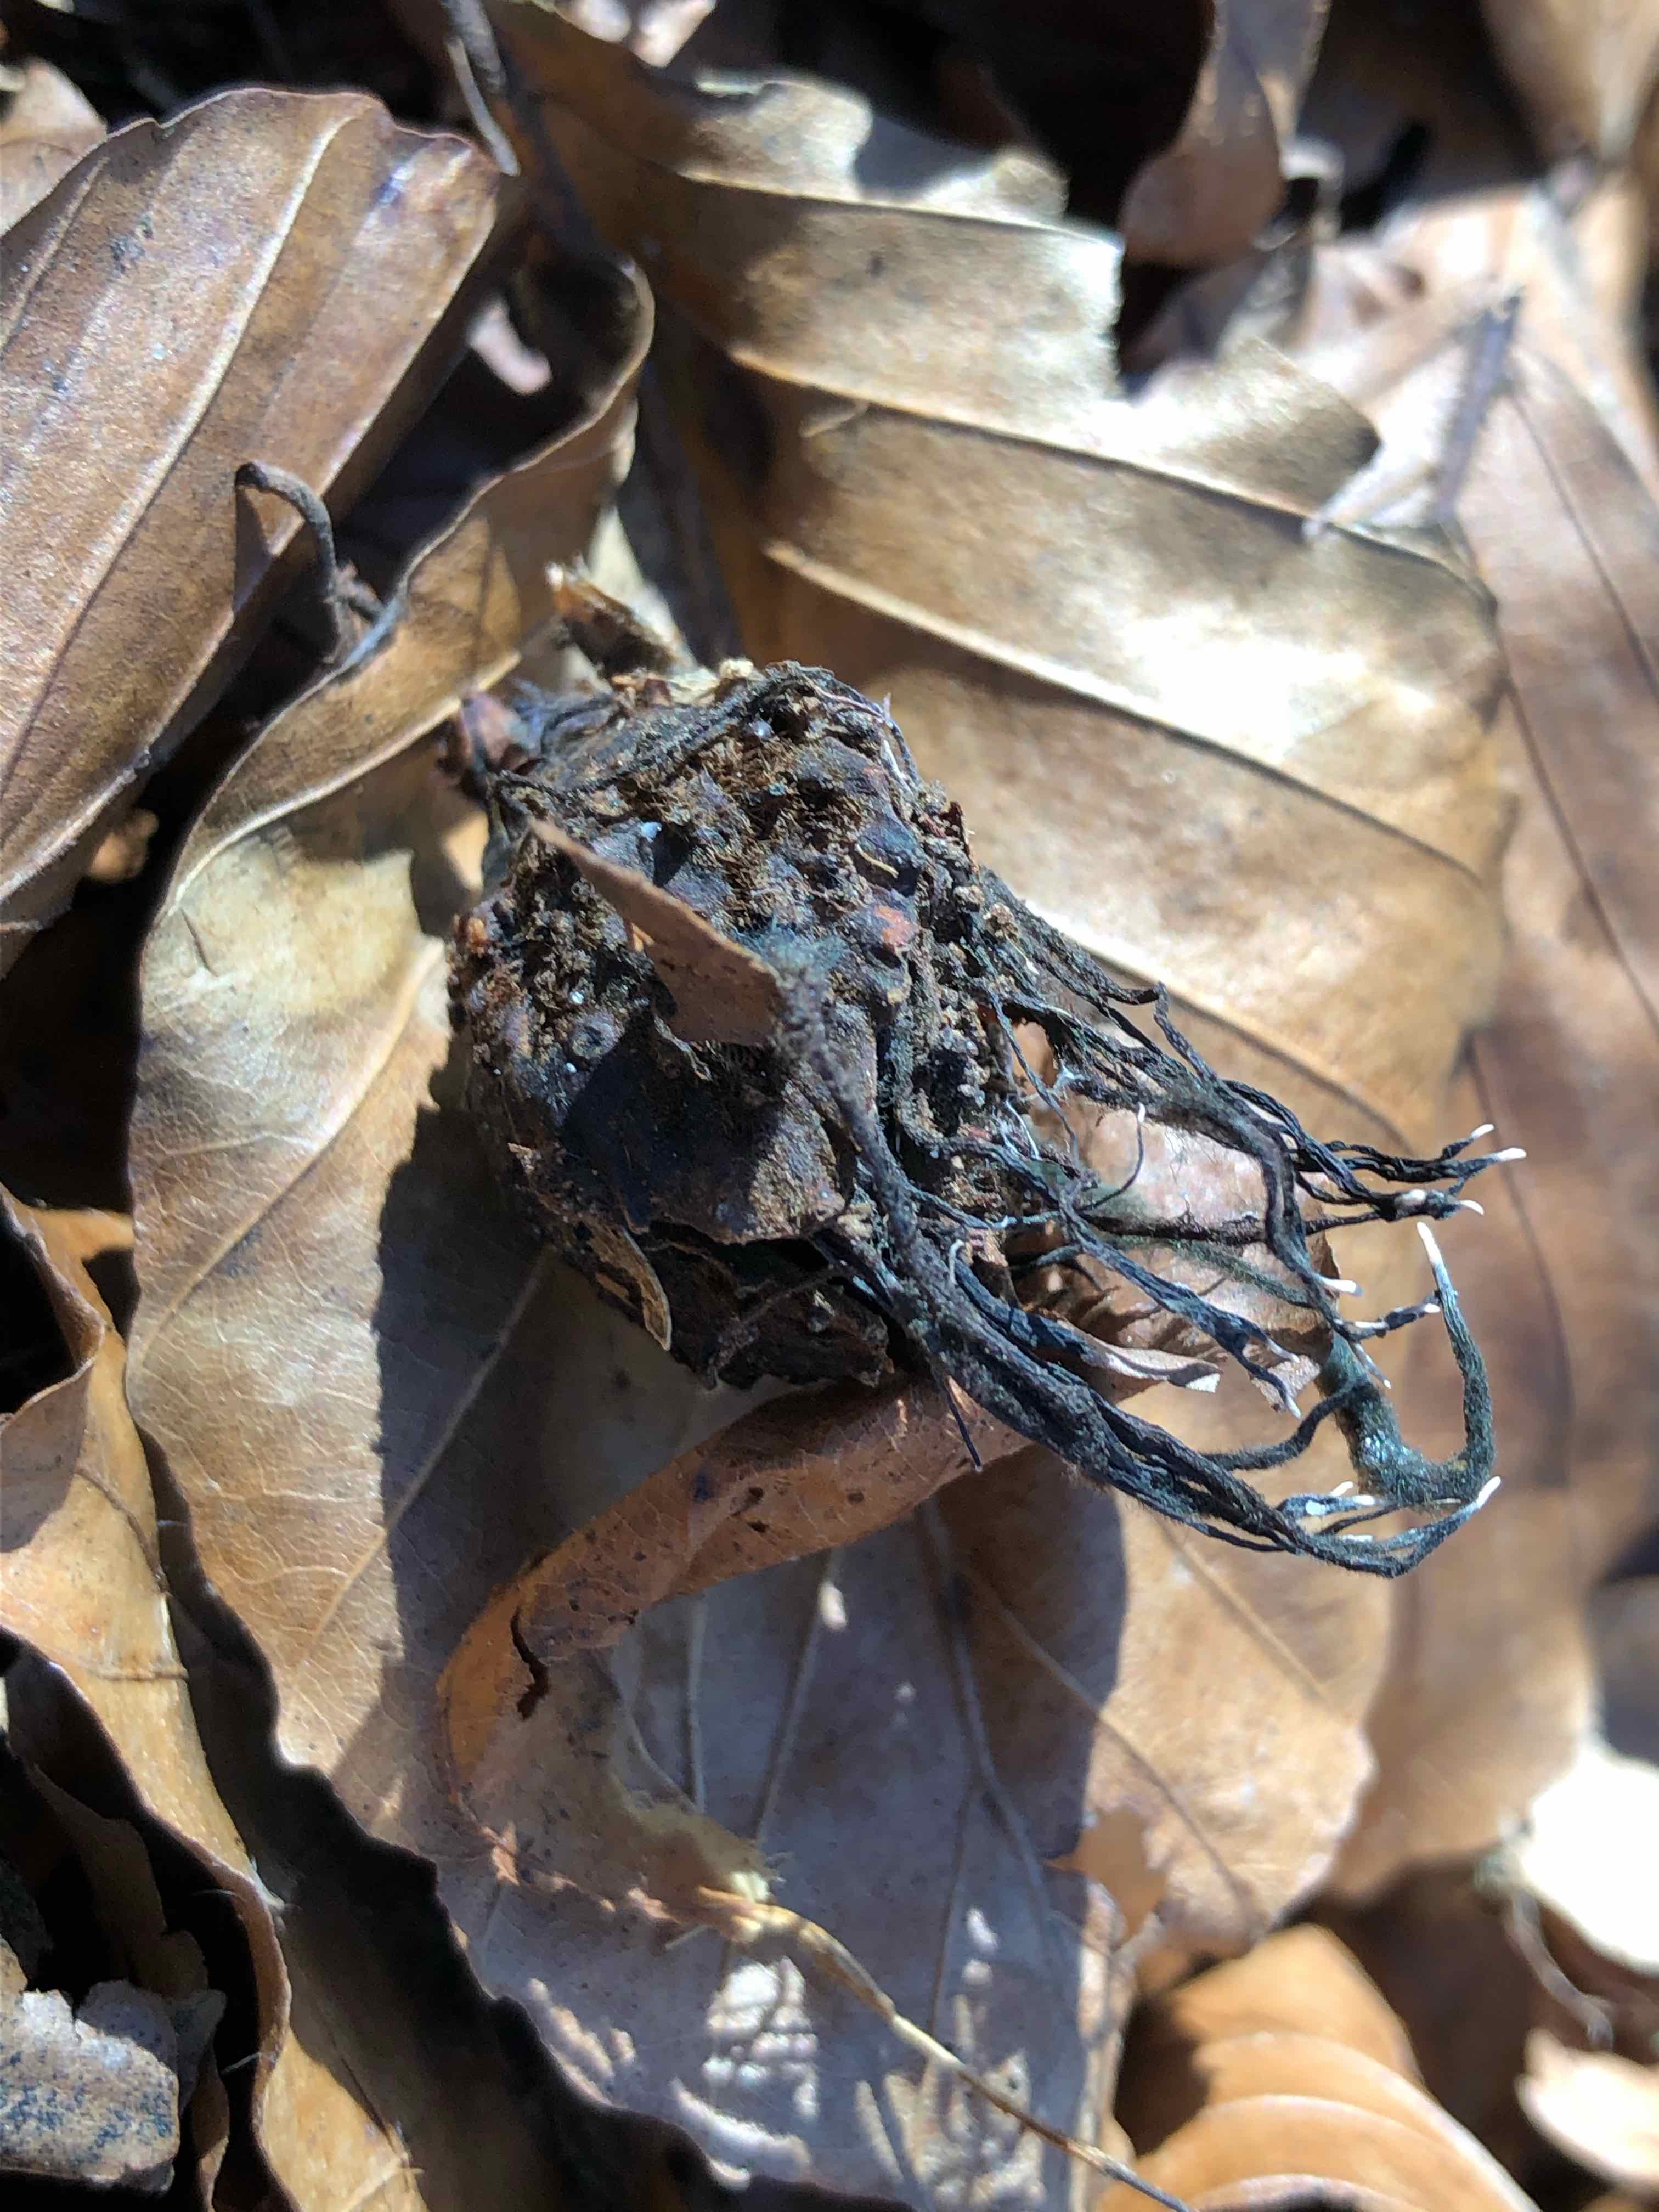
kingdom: Fungi
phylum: Ascomycota
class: Sordariomycetes
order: Xylariales
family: Xylariaceae
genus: Xylaria
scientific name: Xylaria carpophila
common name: bogskål-stødsvamp
